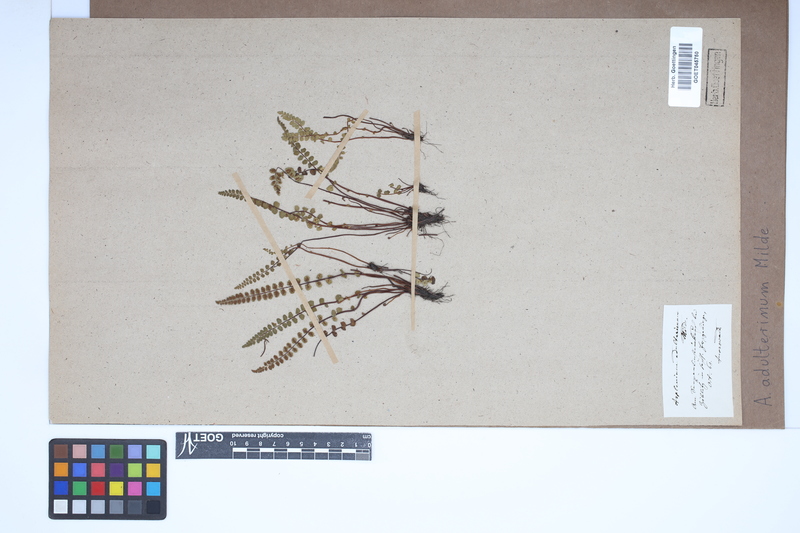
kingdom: Plantae
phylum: Tracheophyta
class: Polypodiopsida
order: Polypodiales
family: Aspleniaceae
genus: Asplenium
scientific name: Asplenium adulterinum
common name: Adulterated spleenwort
